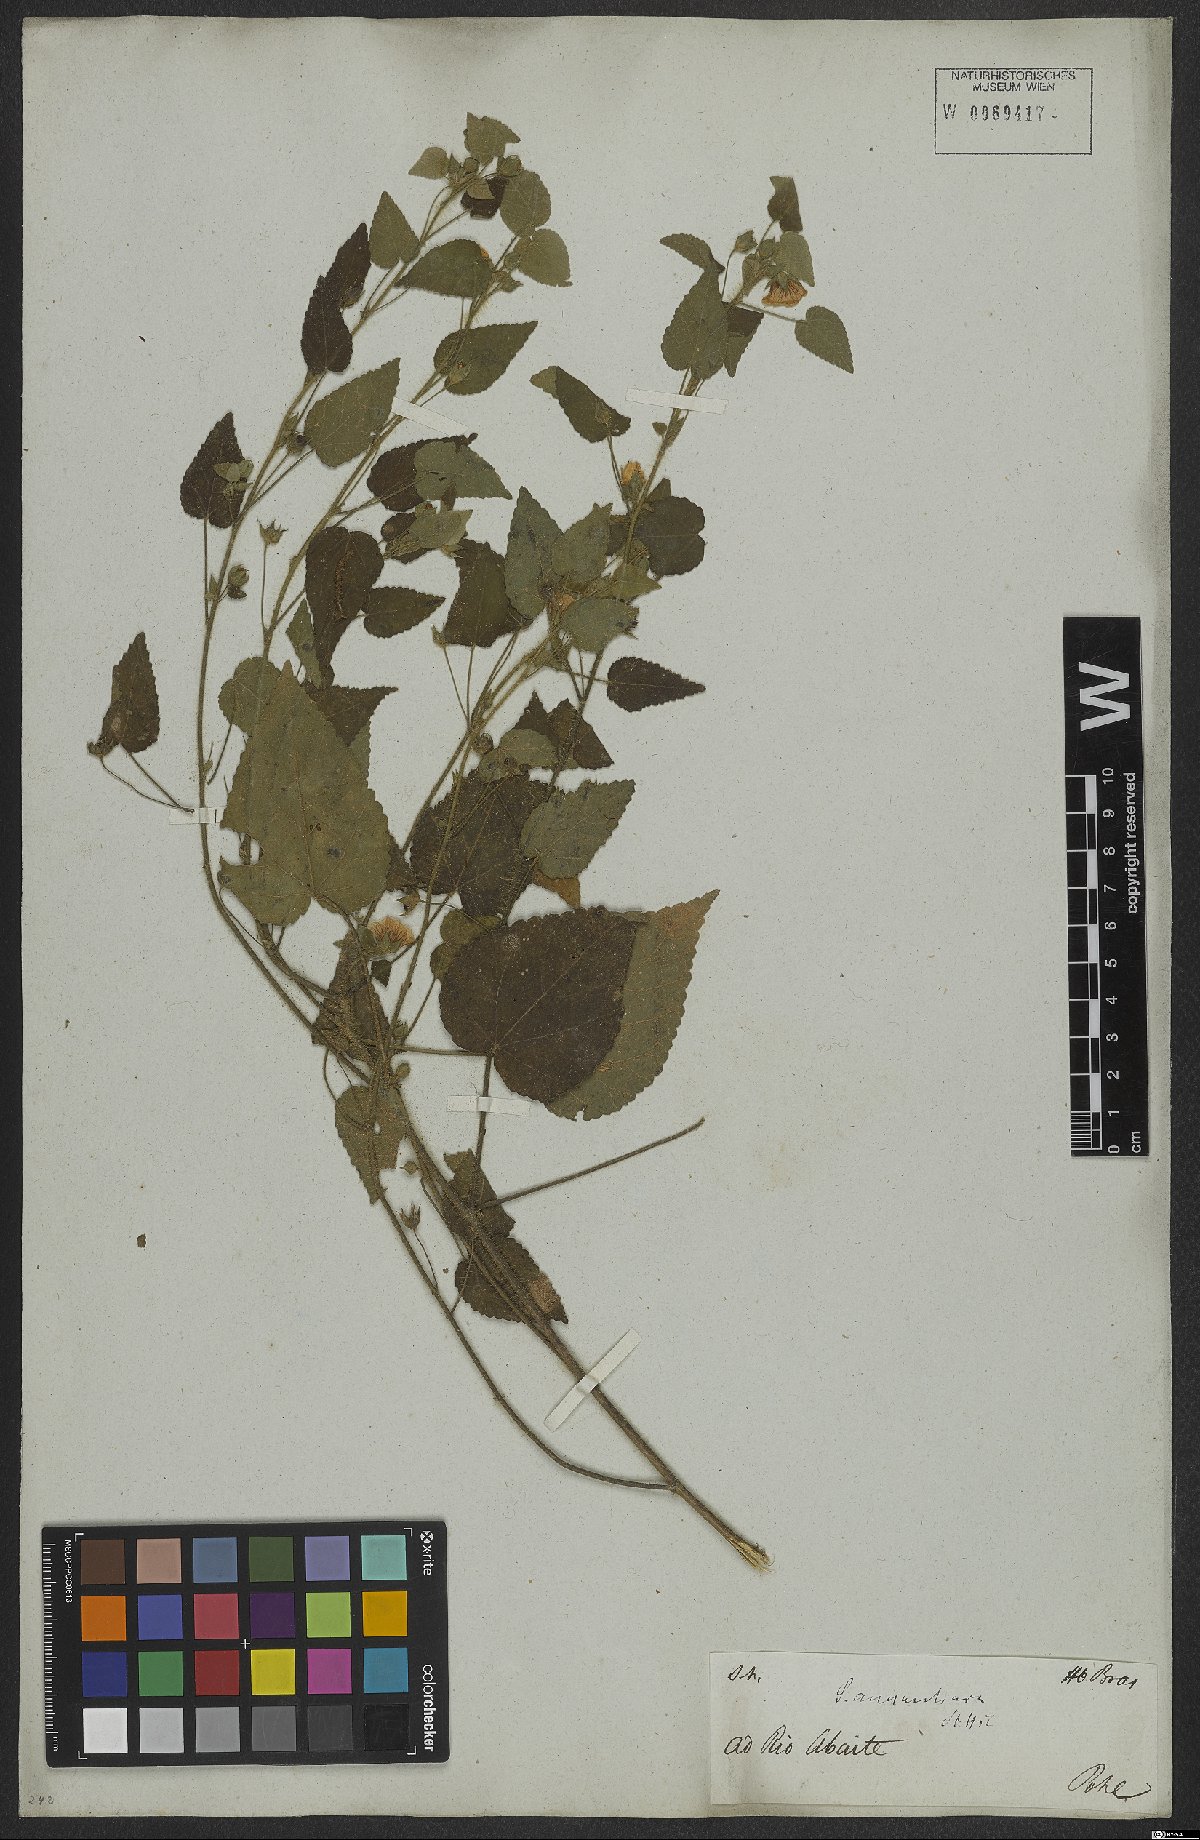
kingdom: Plantae
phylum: Tracheophyta
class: Magnoliopsida
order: Malvales
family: Malvaceae
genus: Sida
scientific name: Sida aurantiaca
